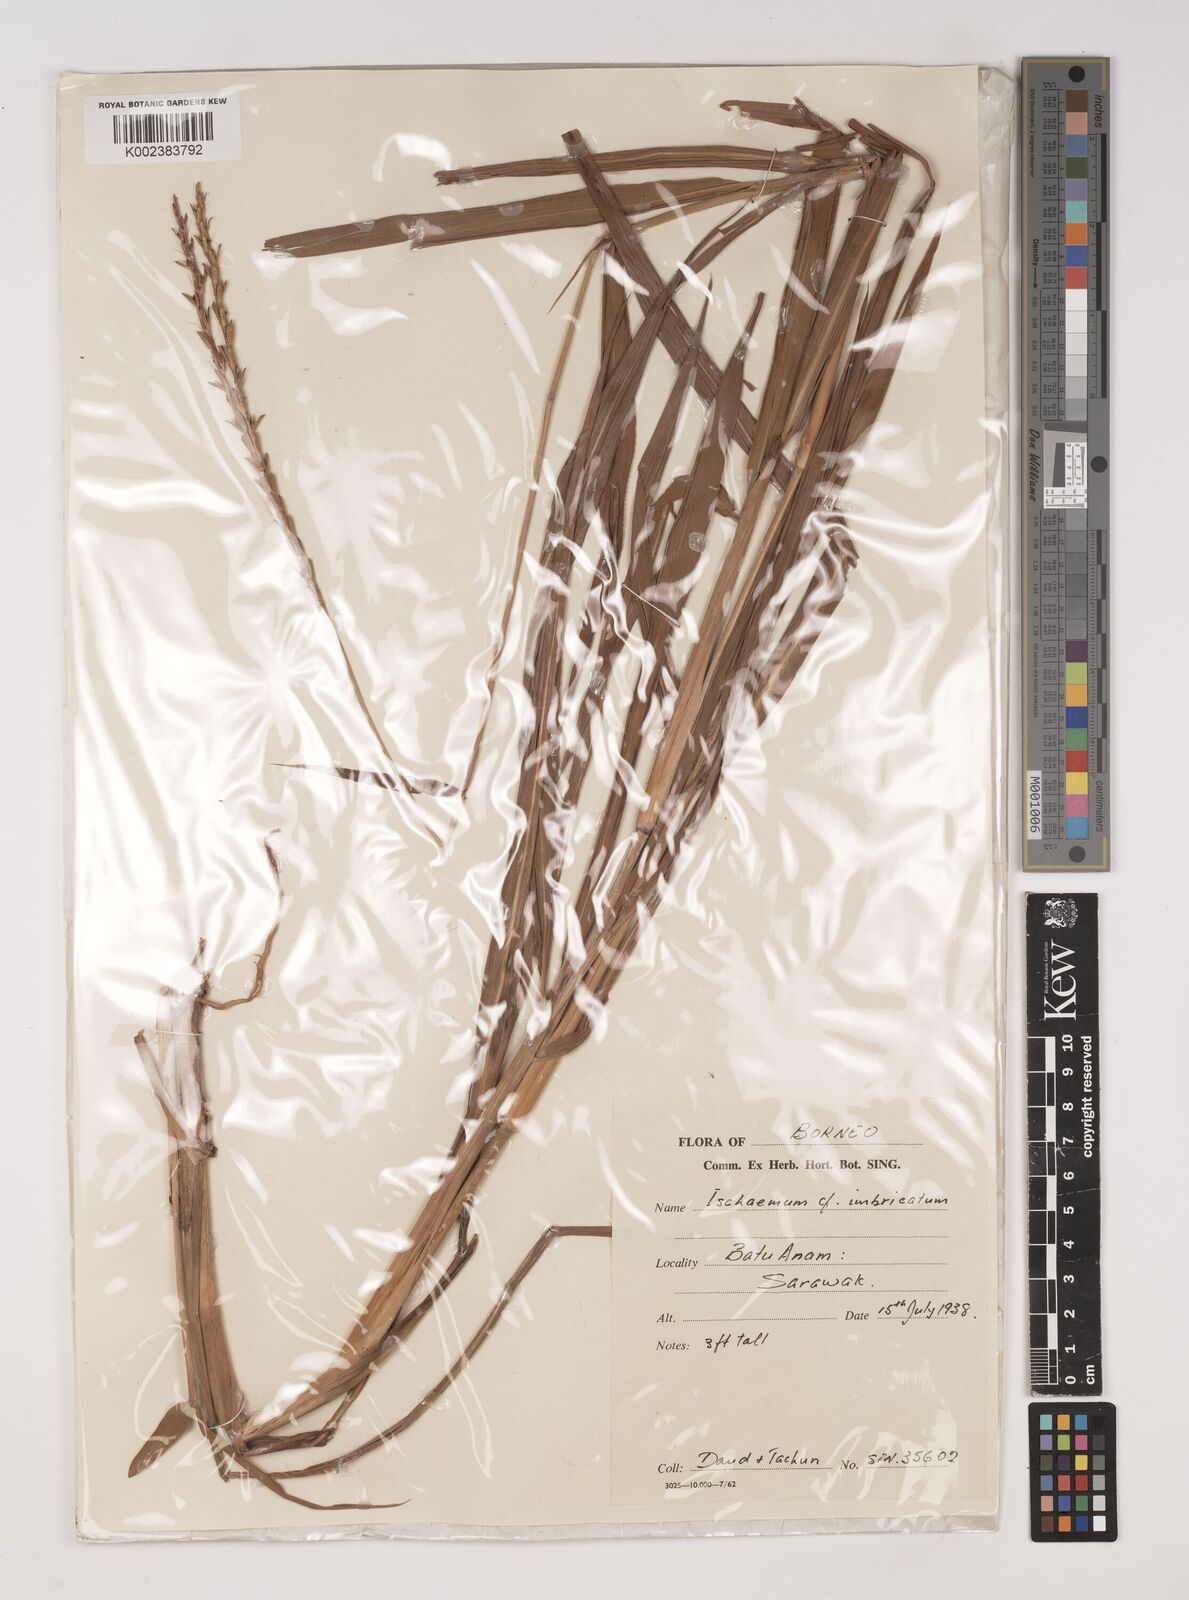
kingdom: Plantae
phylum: Tracheophyta
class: Liliopsida
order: Poales
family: Poaceae
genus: Ischaemum
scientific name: Ischaemum barbatum
